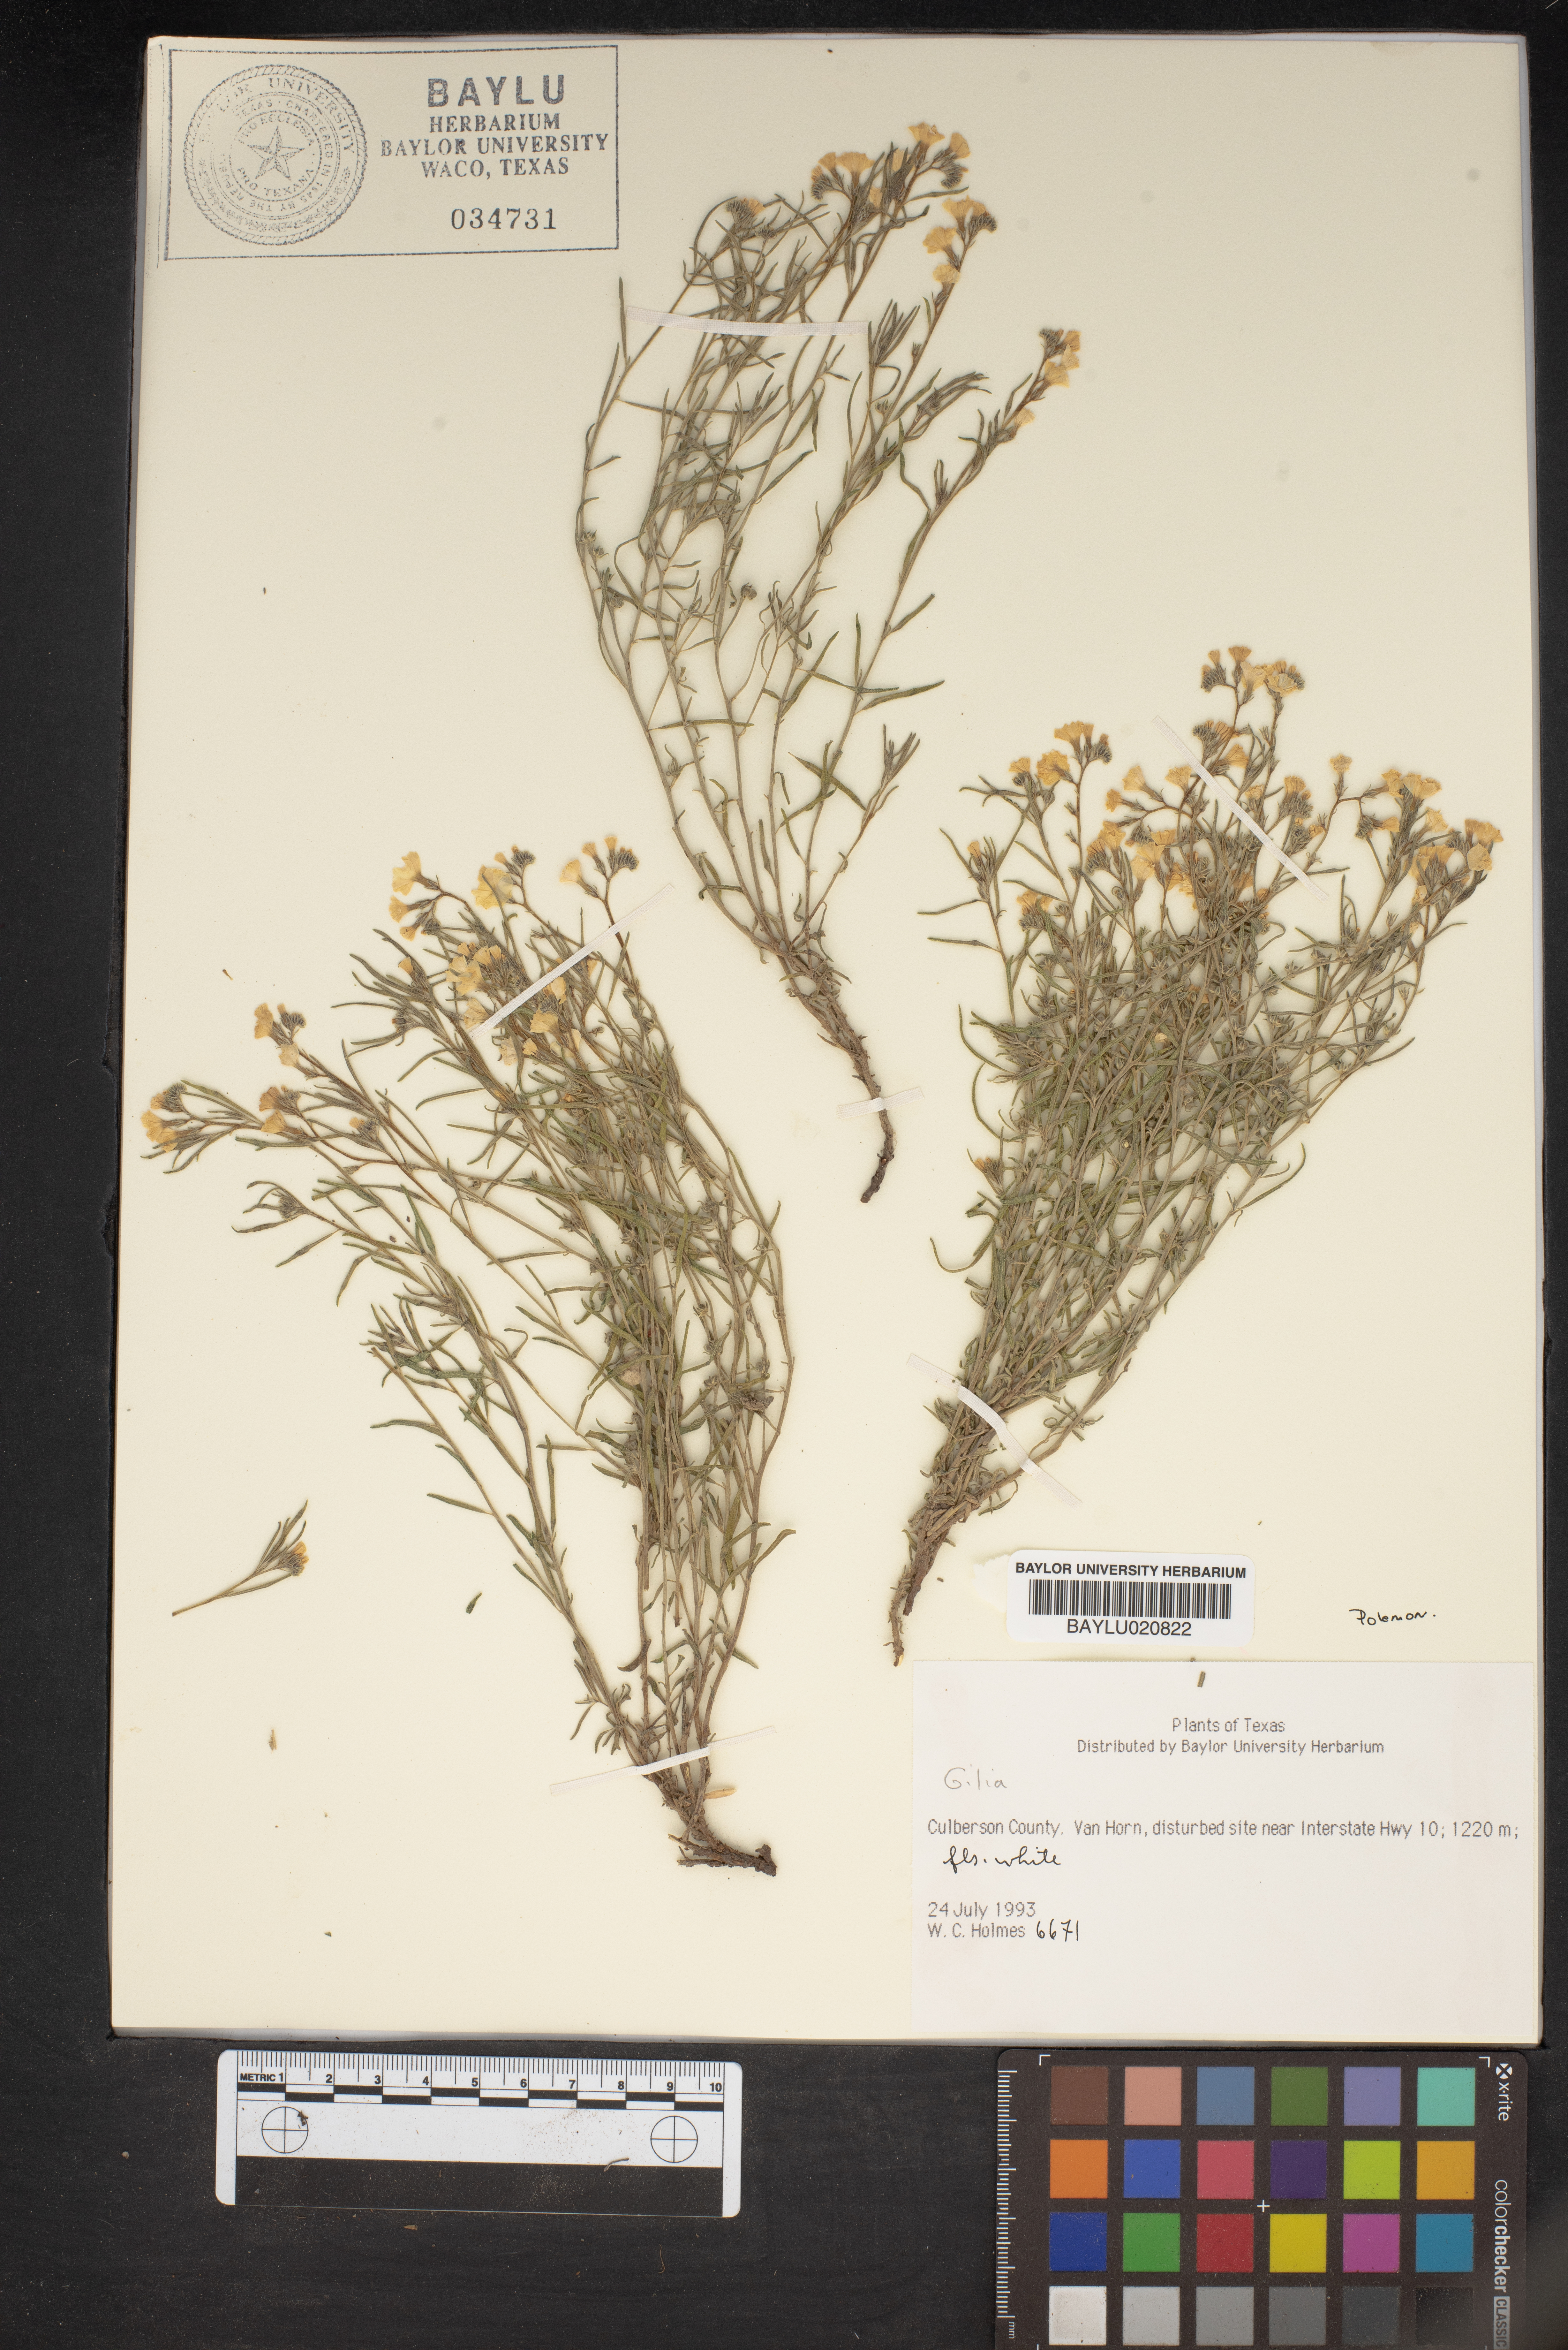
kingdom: Plantae
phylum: Tracheophyta
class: Magnoliopsida
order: Ericales
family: Polemoniaceae
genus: Gilia
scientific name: Gilia
